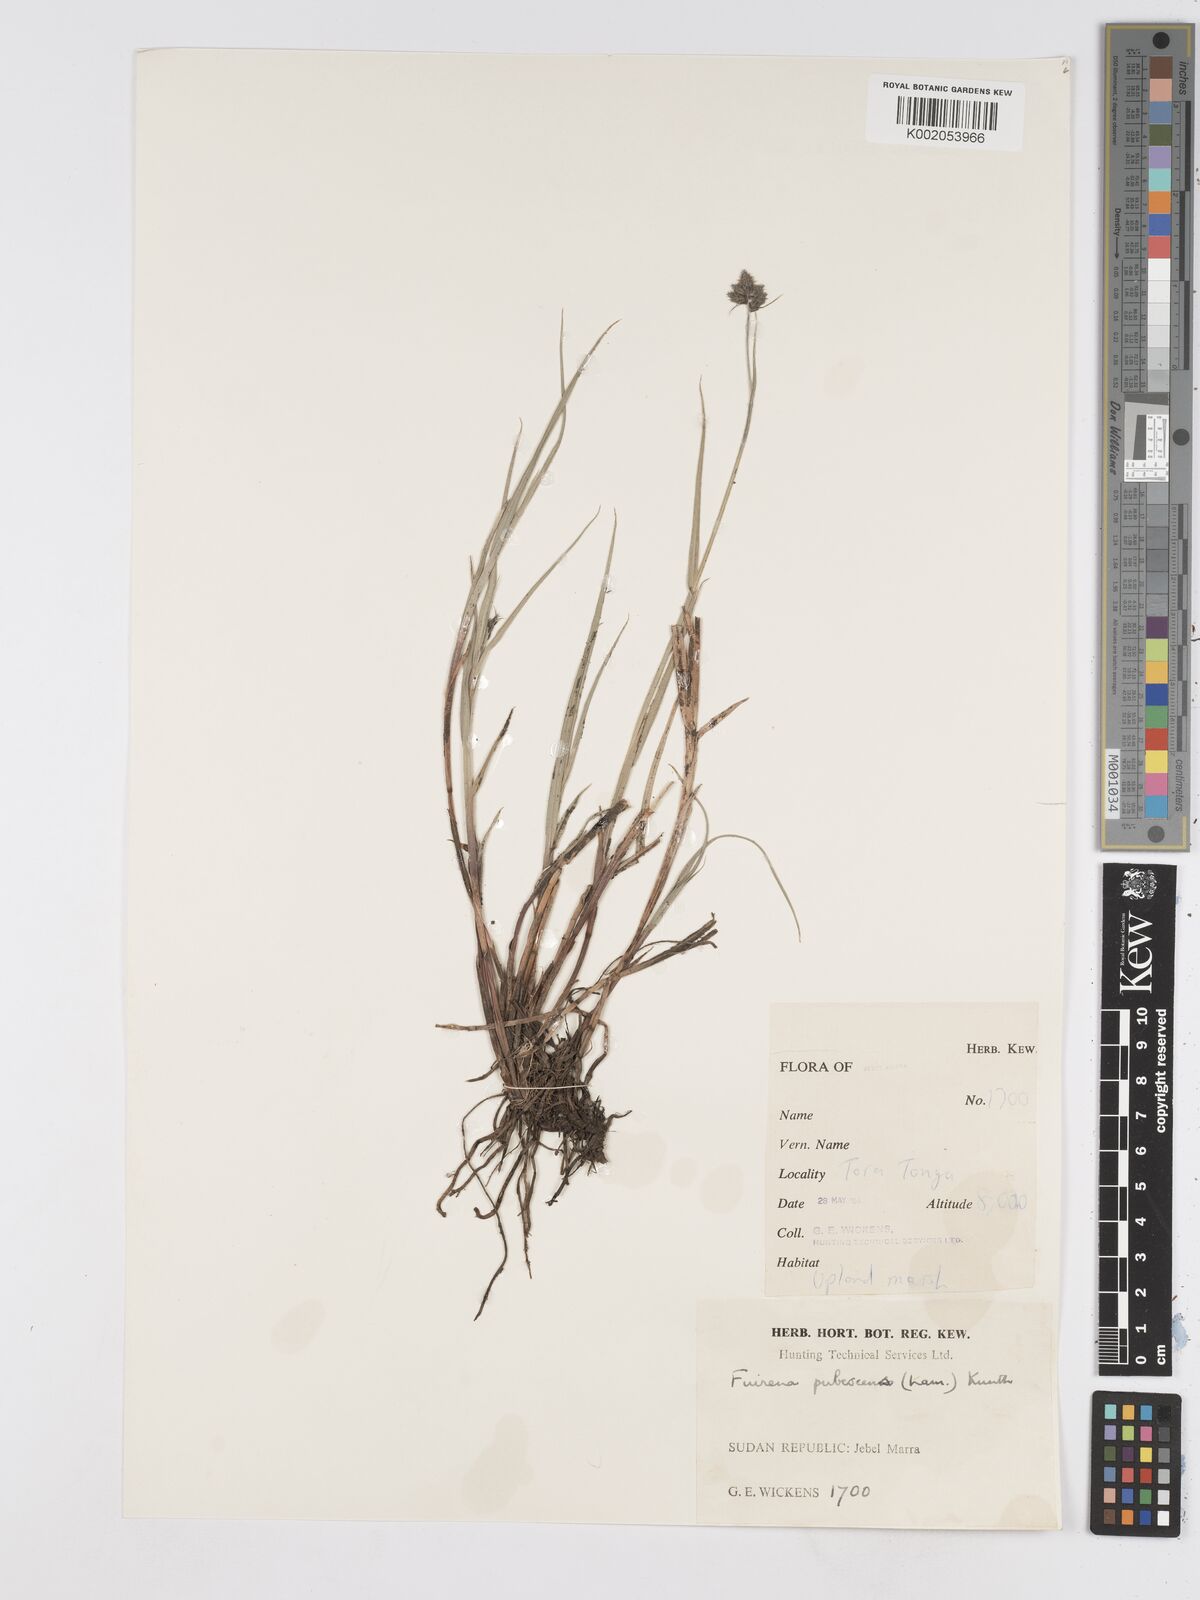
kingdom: Plantae
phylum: Tracheophyta
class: Liliopsida
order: Poales
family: Cyperaceae
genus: Fuirena
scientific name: Fuirena pubescens
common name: Hairy sedge
